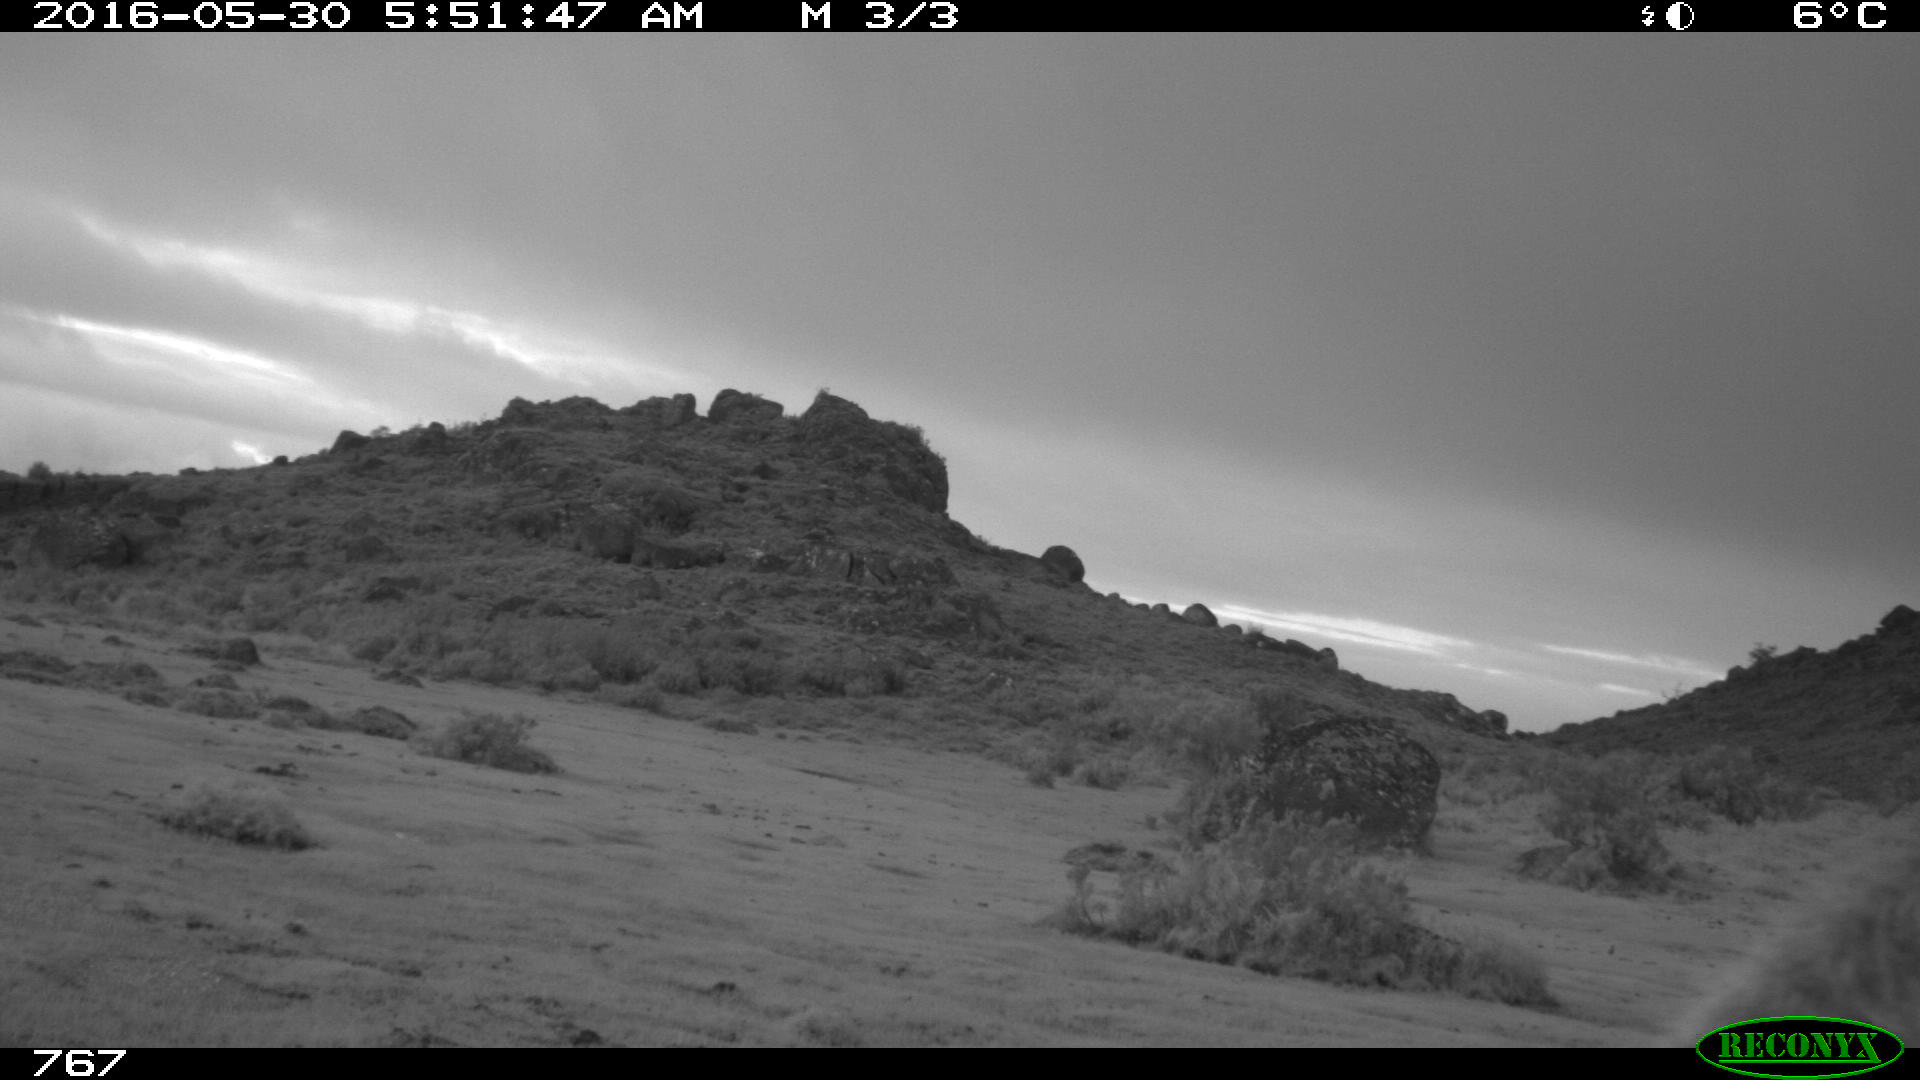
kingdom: Animalia
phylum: Chordata
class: Mammalia
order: Perissodactyla
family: Equidae
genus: Equus
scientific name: Equus caballus
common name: Horse
